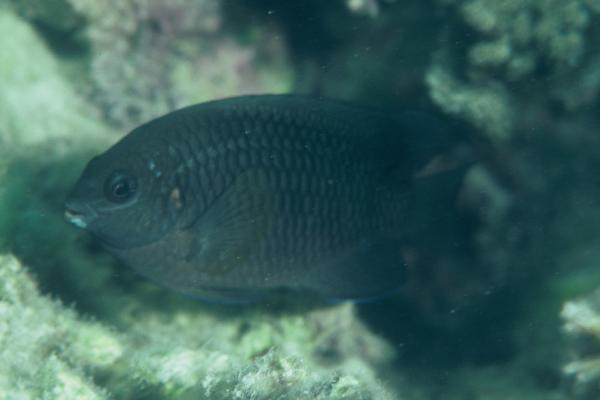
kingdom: Animalia
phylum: Chordata
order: Perciformes
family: Pomacentridae
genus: Chrysiptera
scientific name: Chrysiptera unimaculata
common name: Onespot demoiselle
